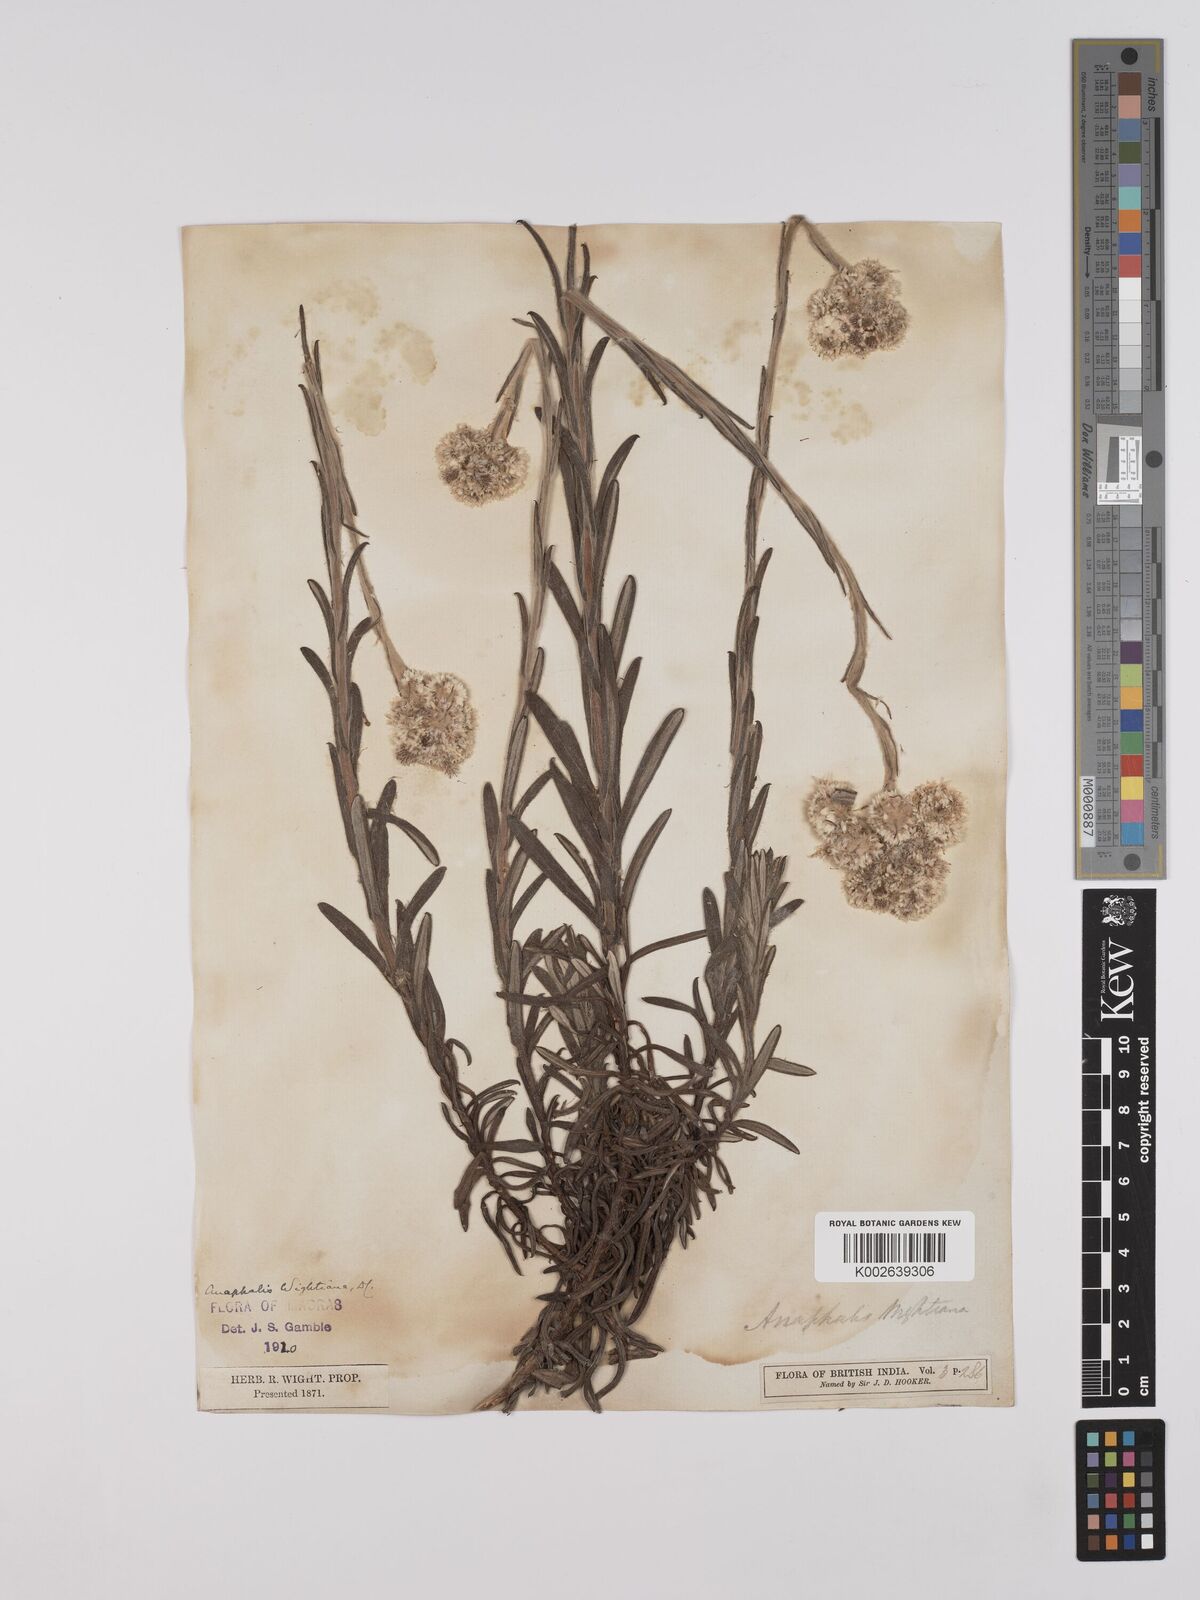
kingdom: Plantae
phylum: Tracheophyta
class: Magnoliopsida
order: Asterales
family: Asteraceae
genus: Anaphalis
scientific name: Anaphalis wightiana
